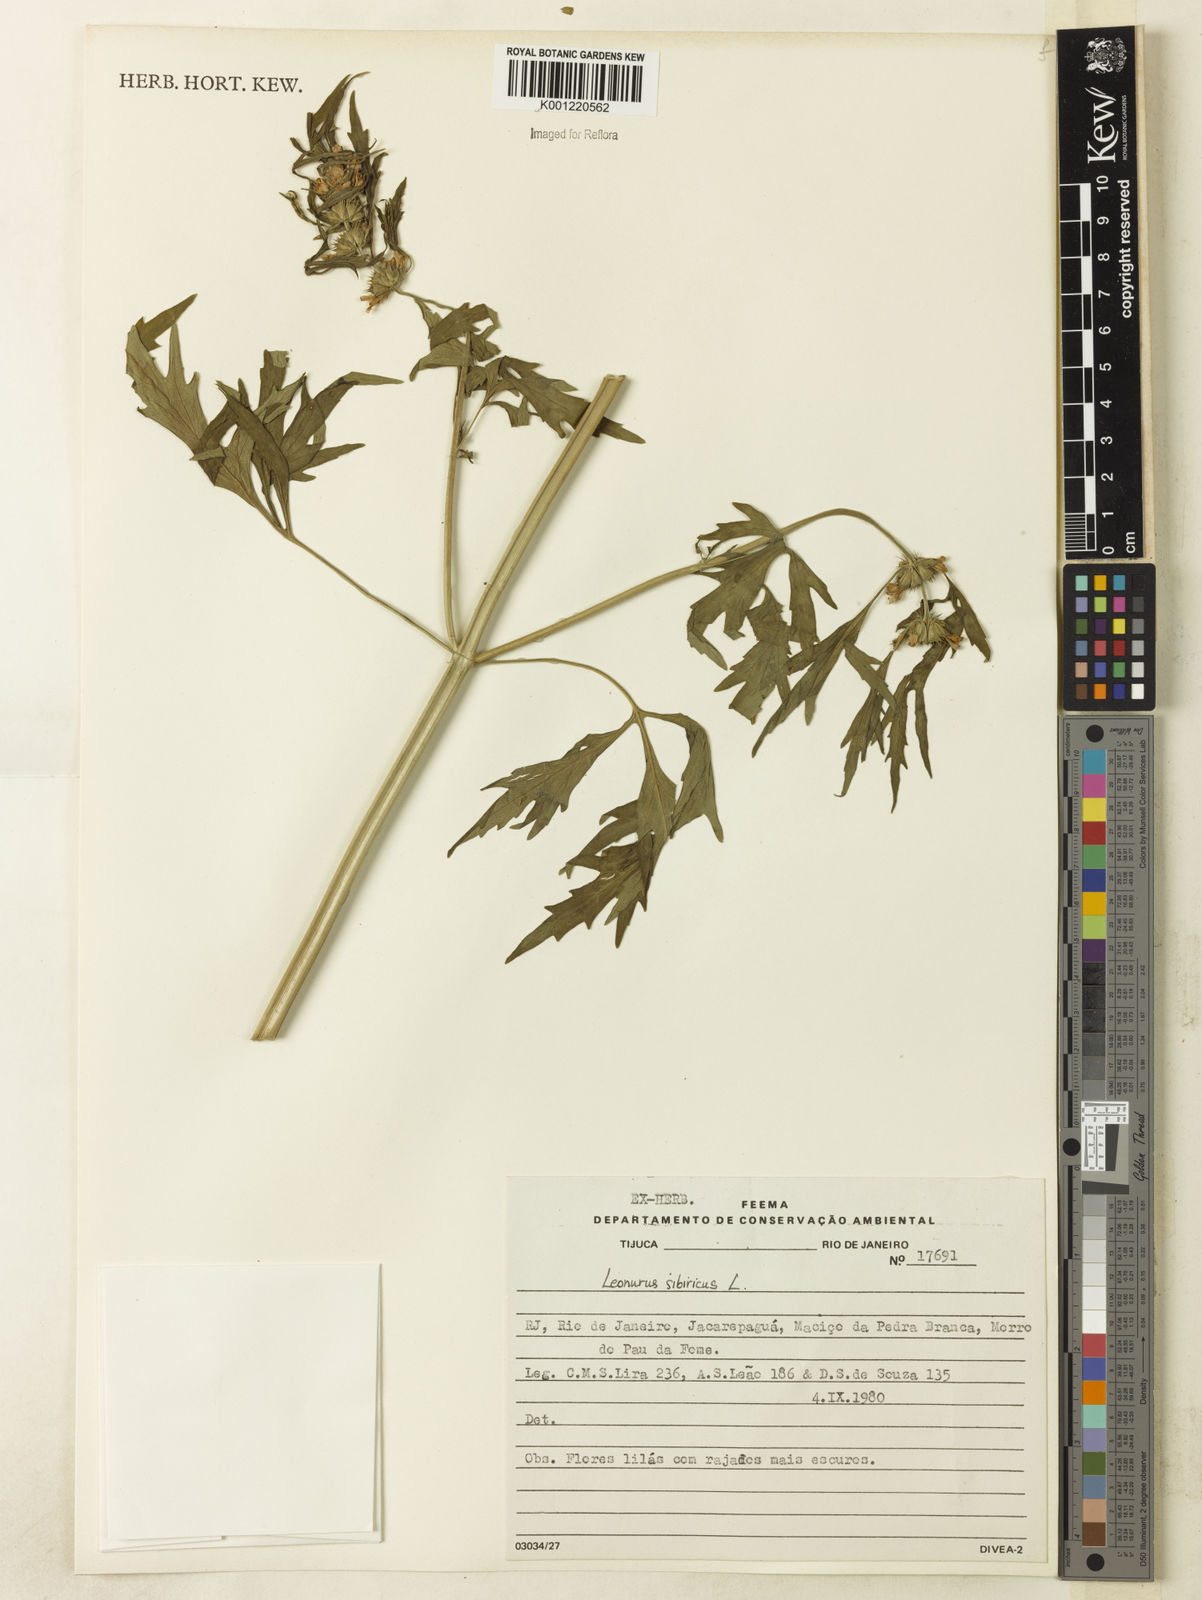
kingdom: Plantae
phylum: Tracheophyta
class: Magnoliopsida
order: Lamiales
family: Lamiaceae
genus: Leonurus
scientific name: Leonurus japonicus
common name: Honeyweed
